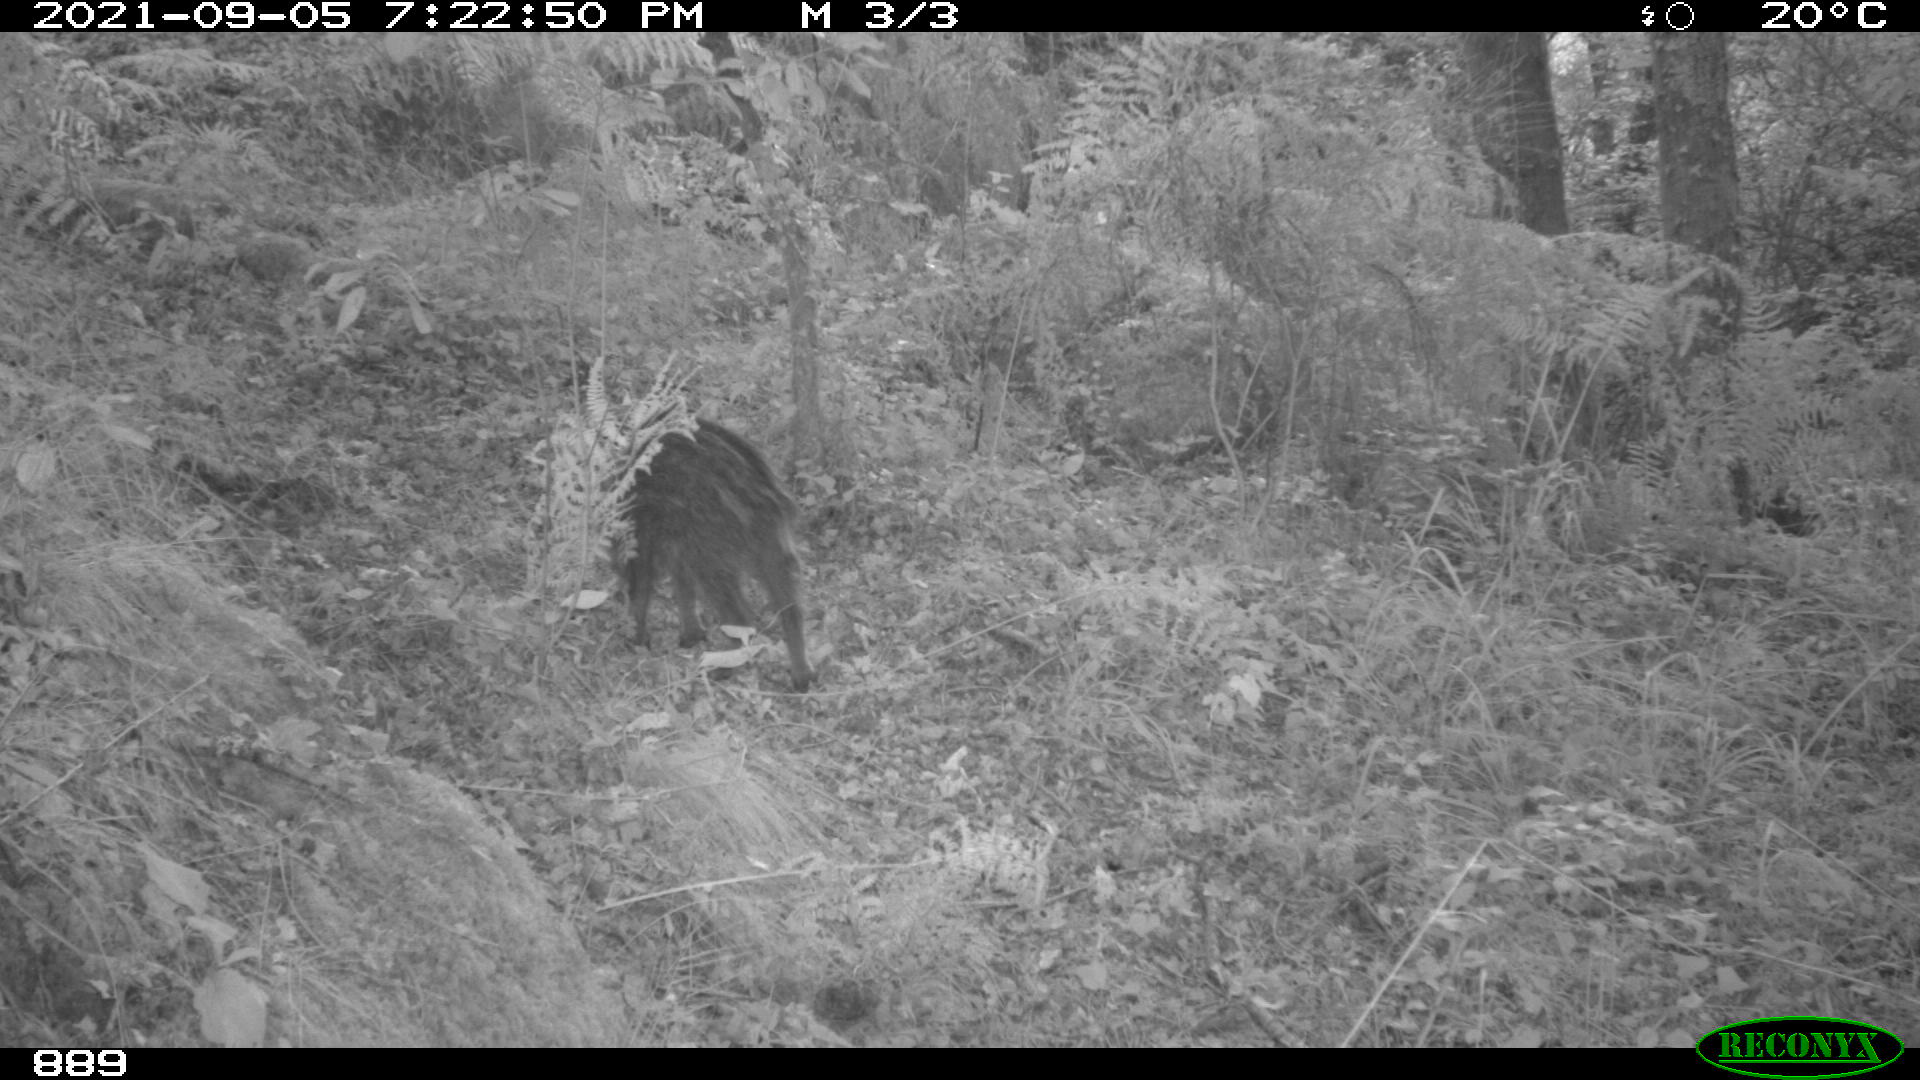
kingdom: Animalia
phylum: Chordata
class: Mammalia
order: Artiodactyla
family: Suidae
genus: Sus
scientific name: Sus scrofa
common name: Wild boar
